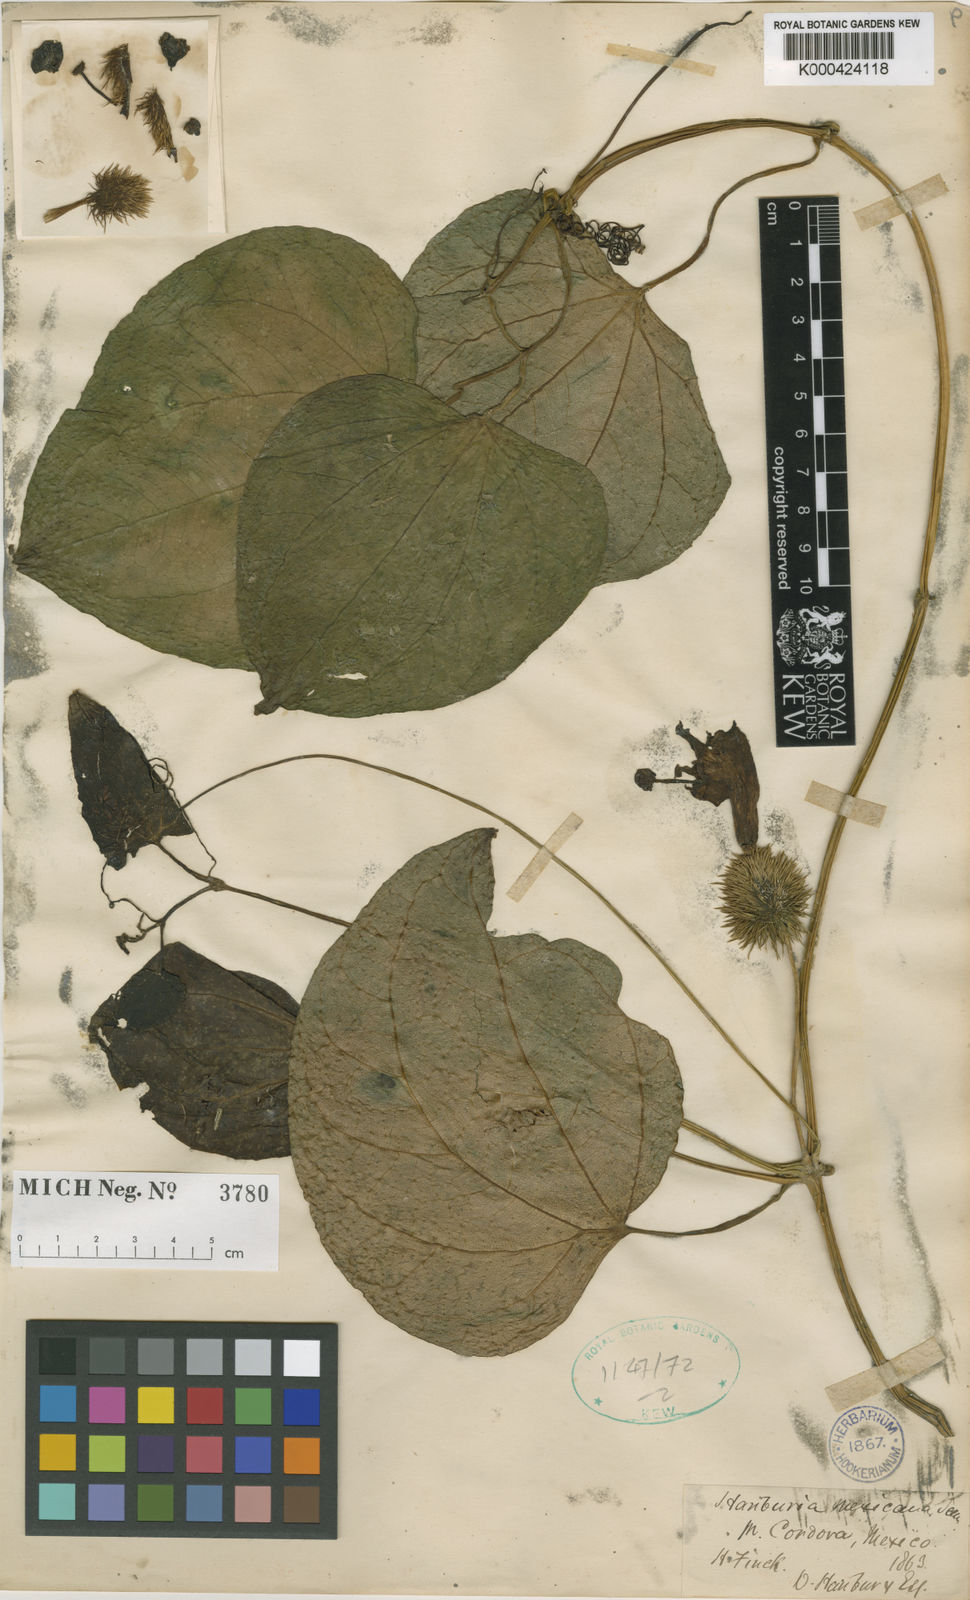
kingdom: Plantae
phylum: Tracheophyta
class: Magnoliopsida
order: Cucurbitales
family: Cucurbitaceae
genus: Hanburia
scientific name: Hanburia mexicana
